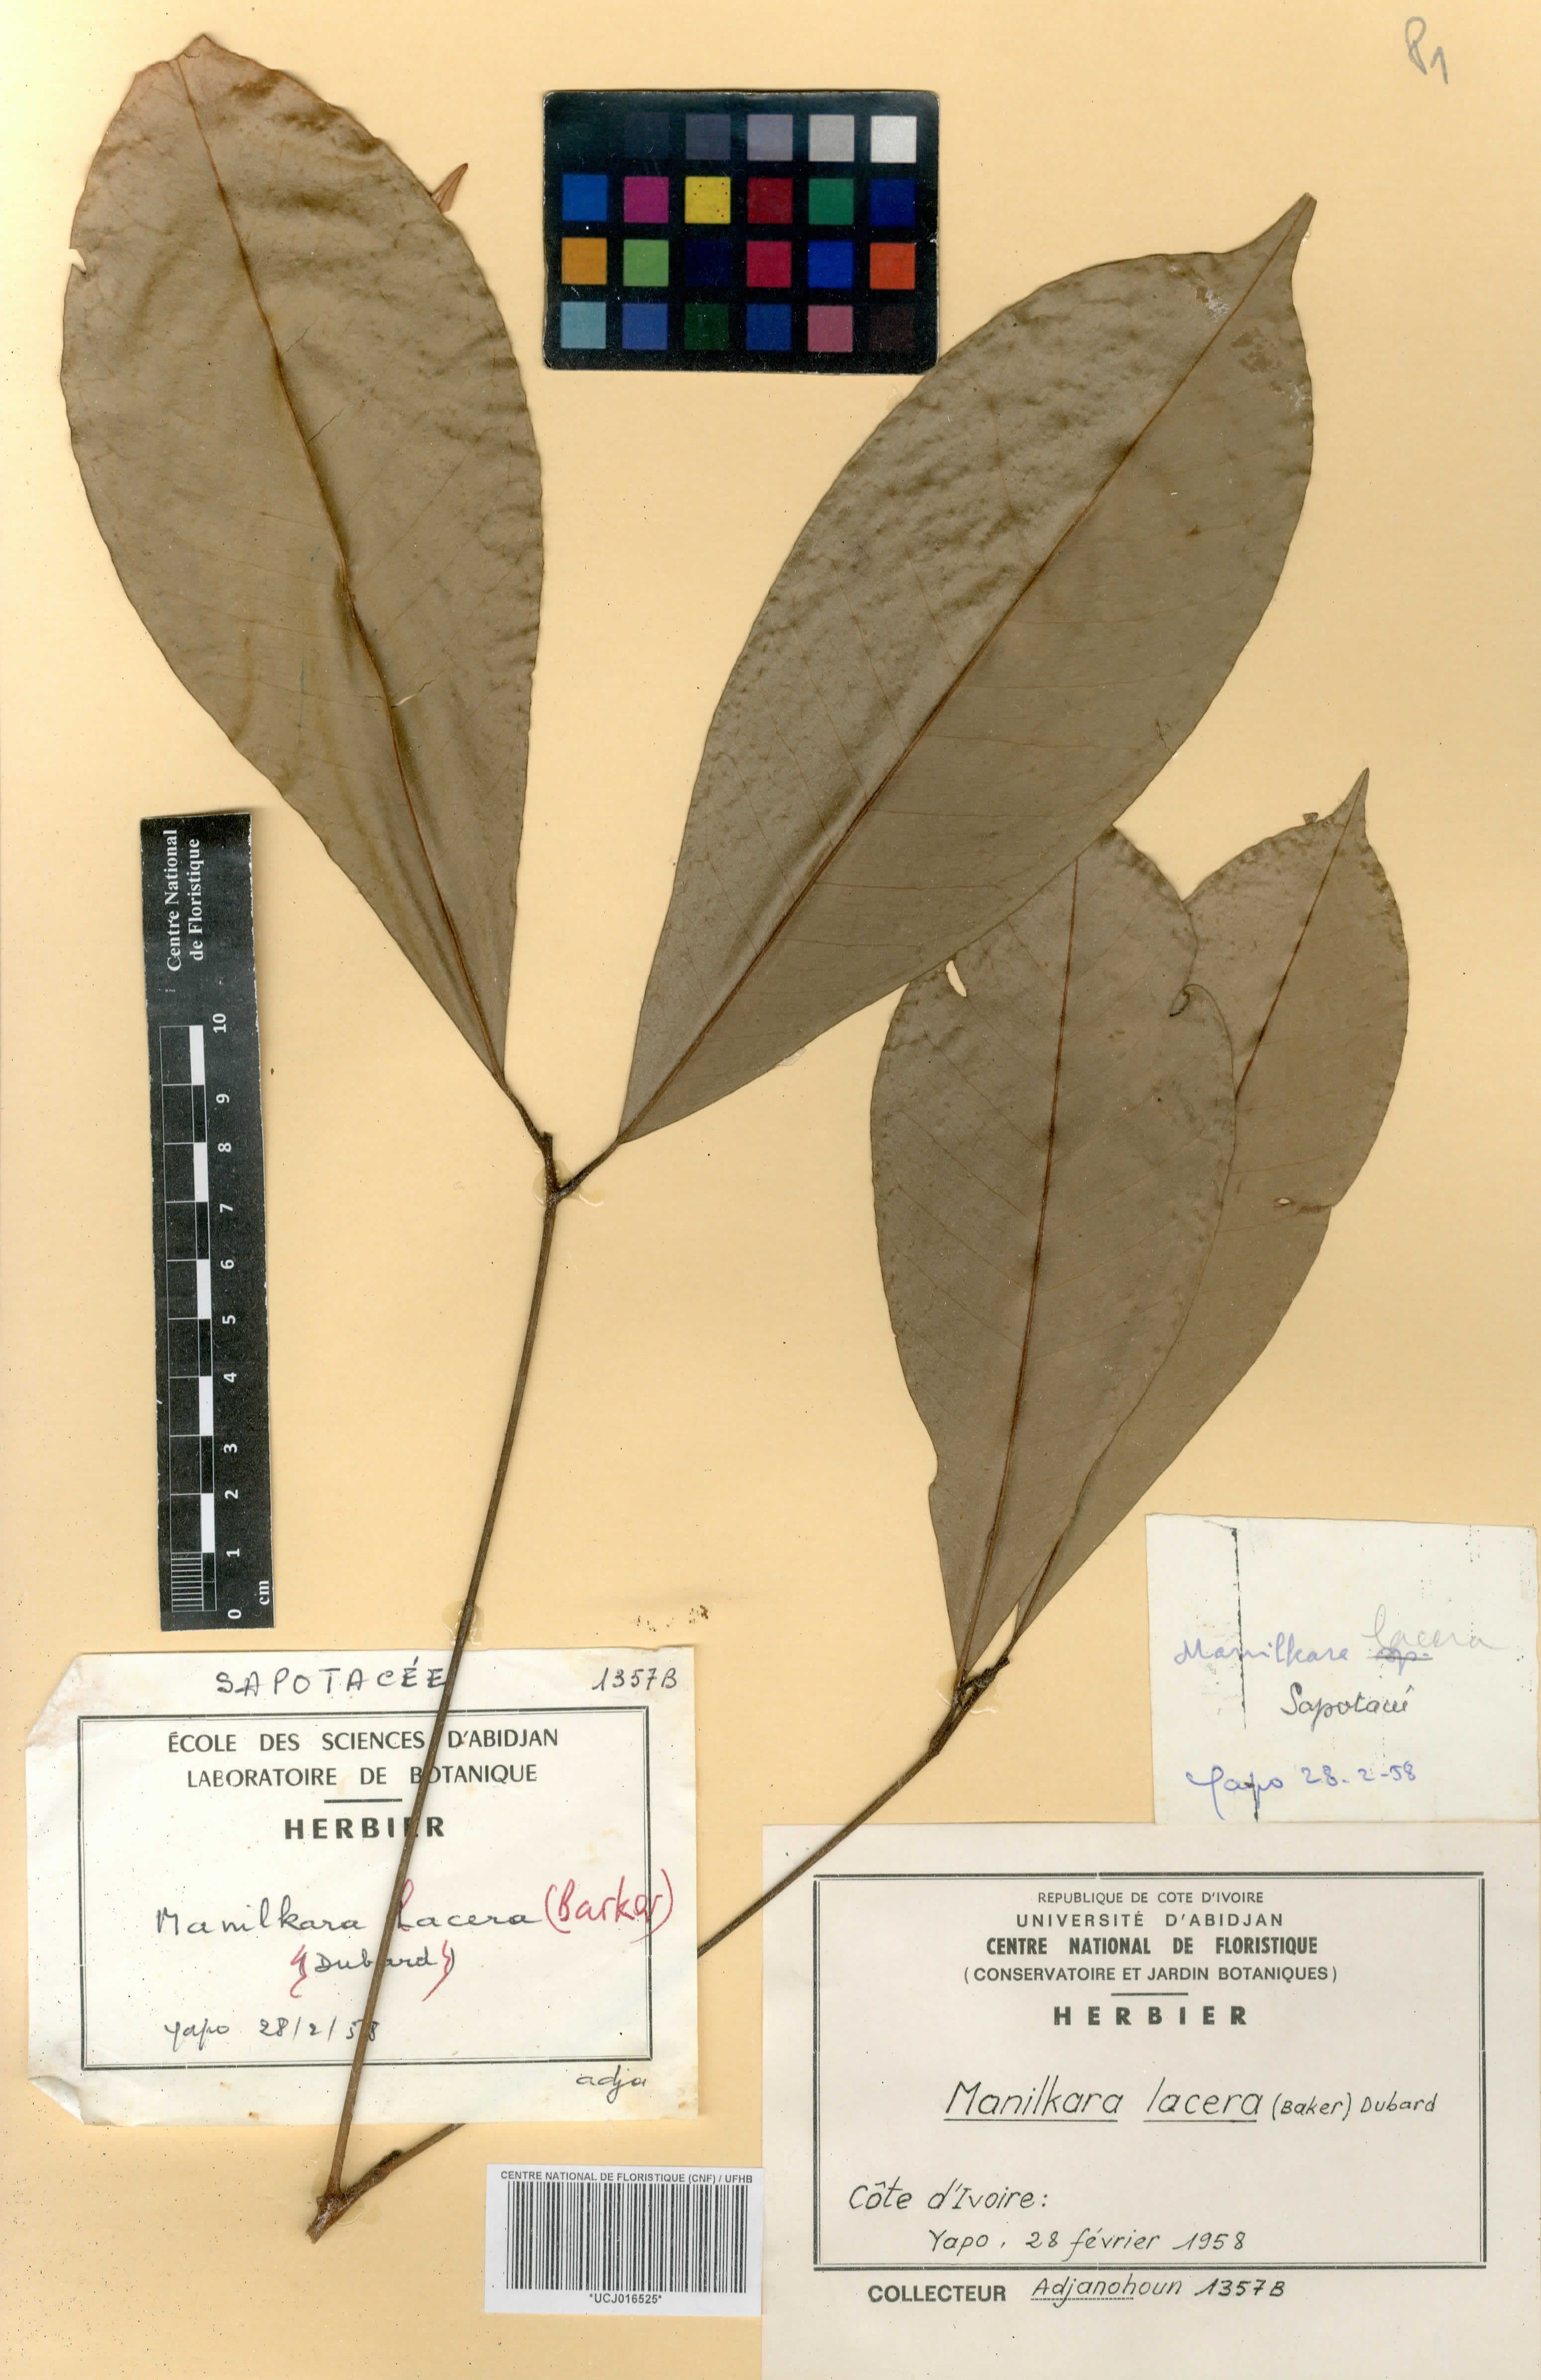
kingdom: Plantae
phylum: Tracheophyta
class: Magnoliopsida
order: Ericales
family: Sapotaceae
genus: Manilkara
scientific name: Manilkara obovata
